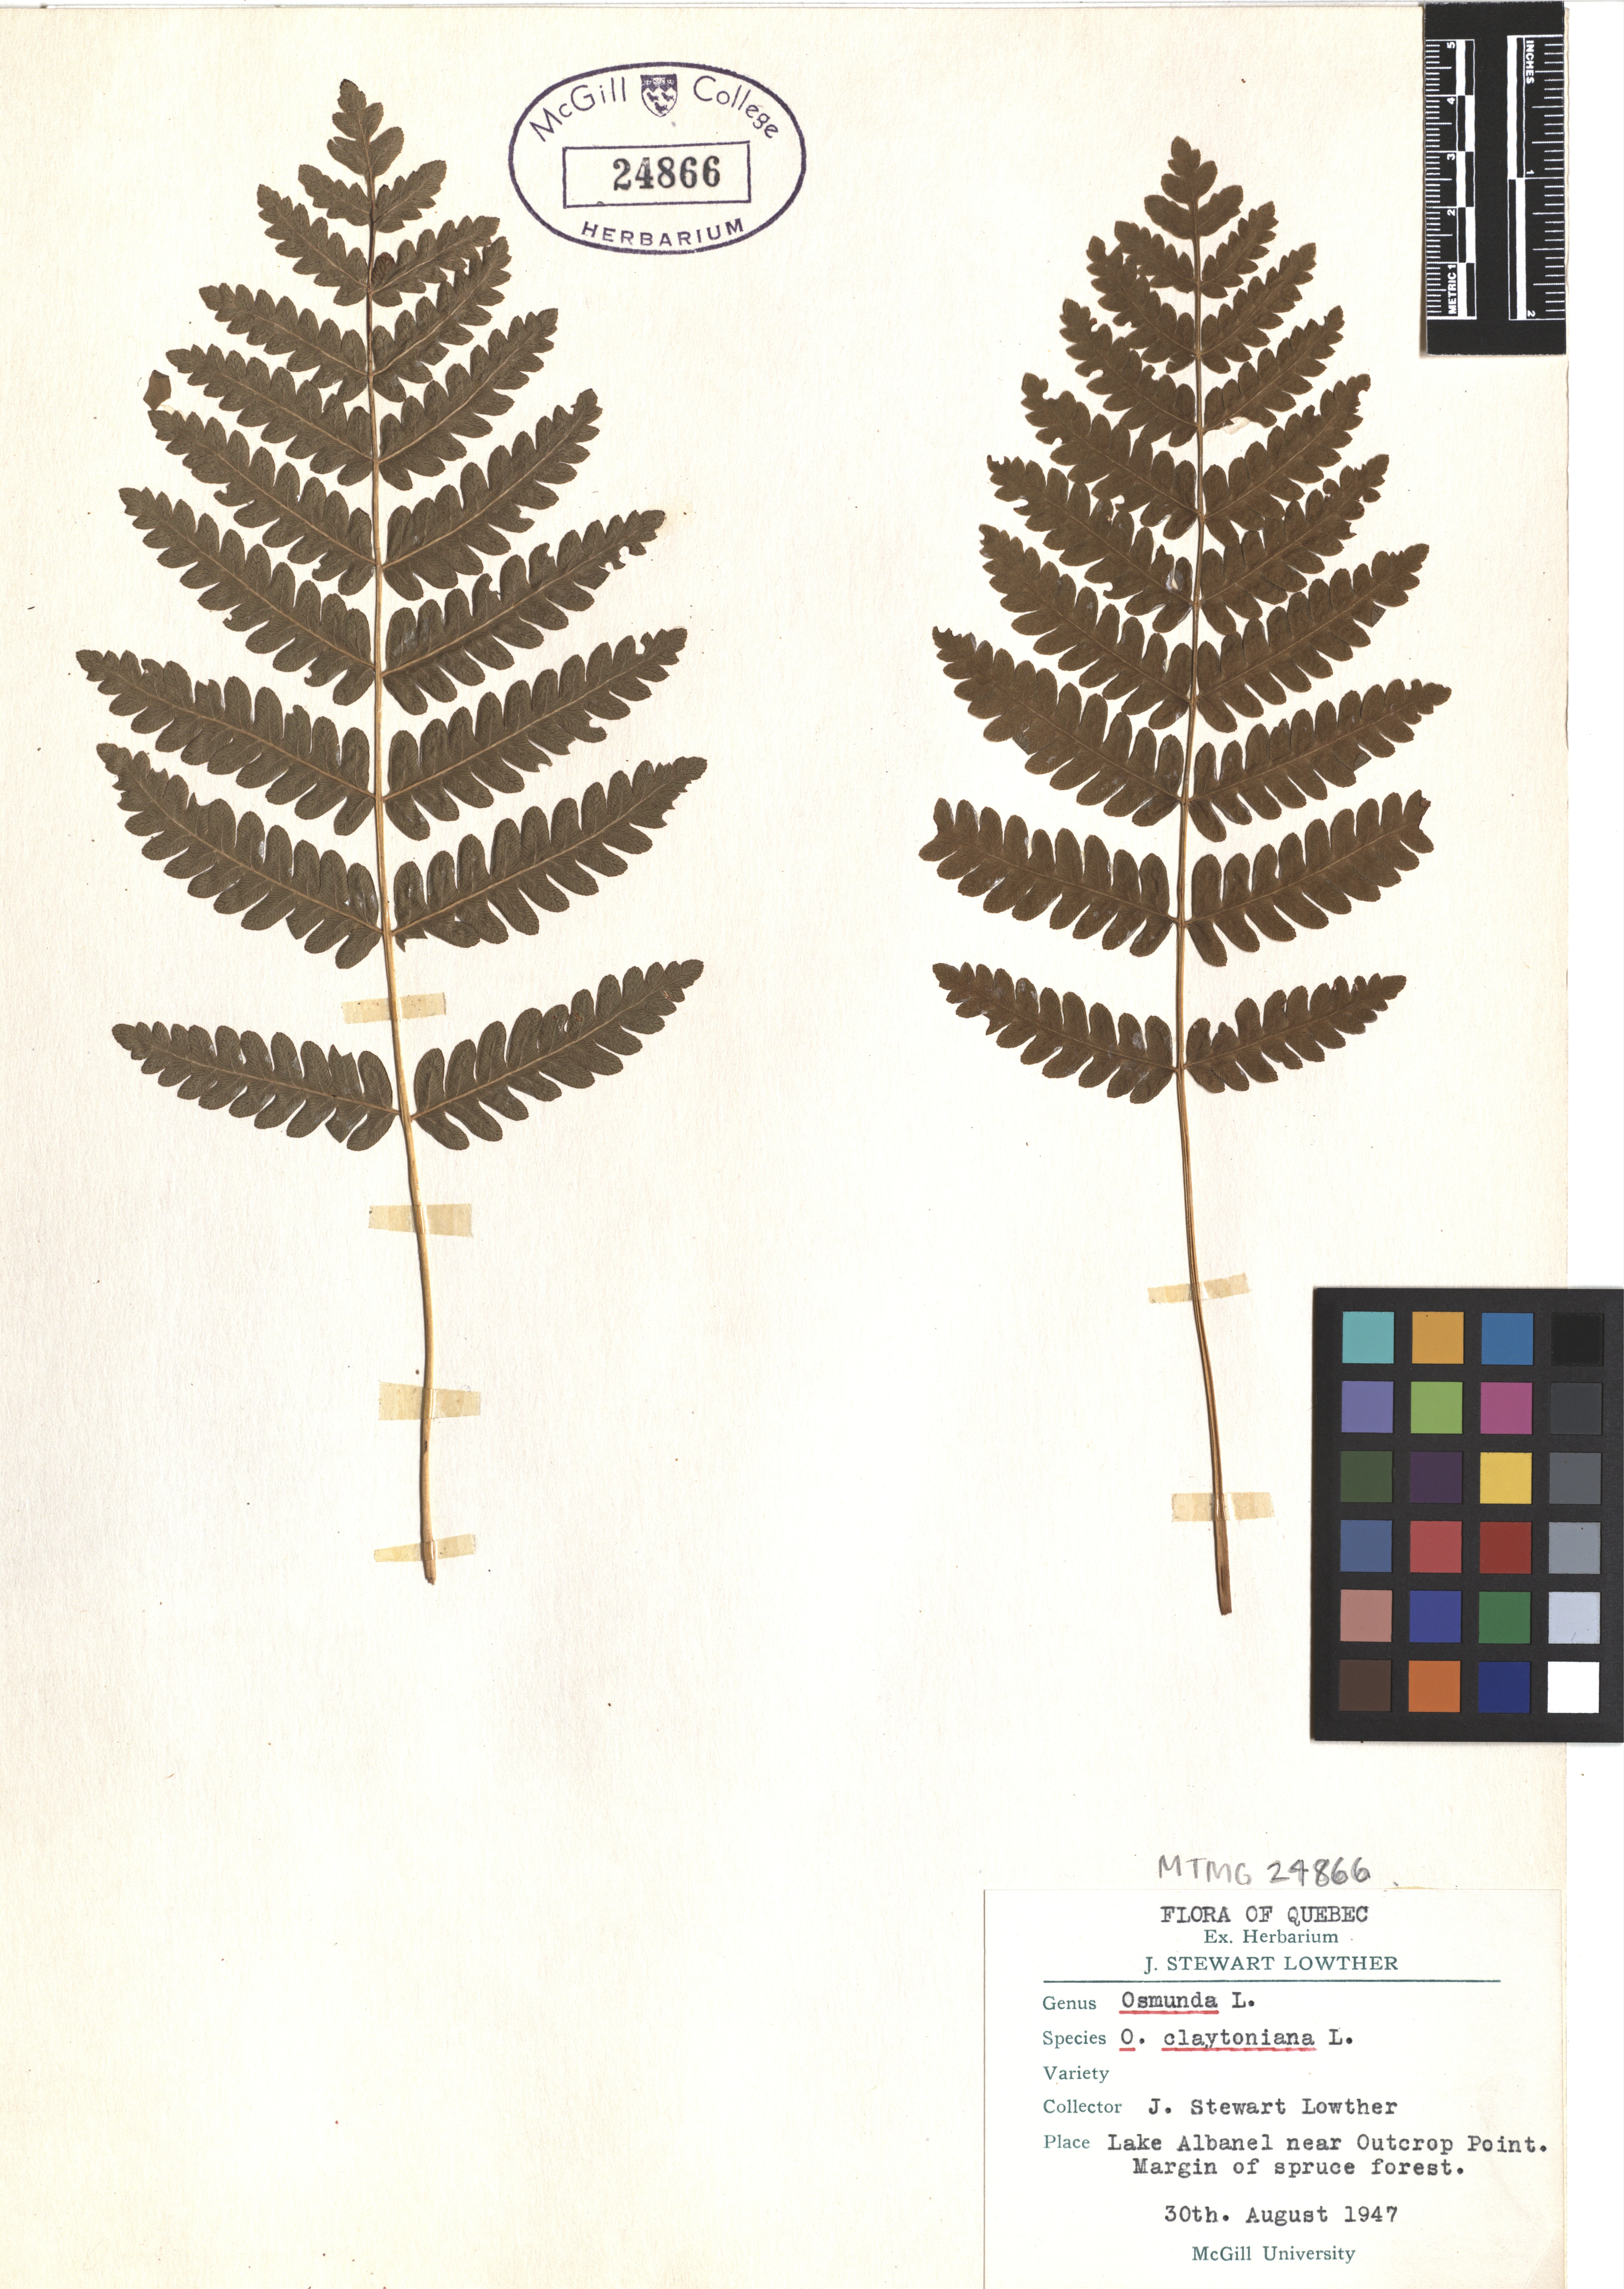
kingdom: Plantae
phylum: Tracheophyta
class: Polypodiopsida
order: Osmundales
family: Osmundaceae
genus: Claytosmunda
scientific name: Claytosmunda claytoniana
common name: Clayton's fern
